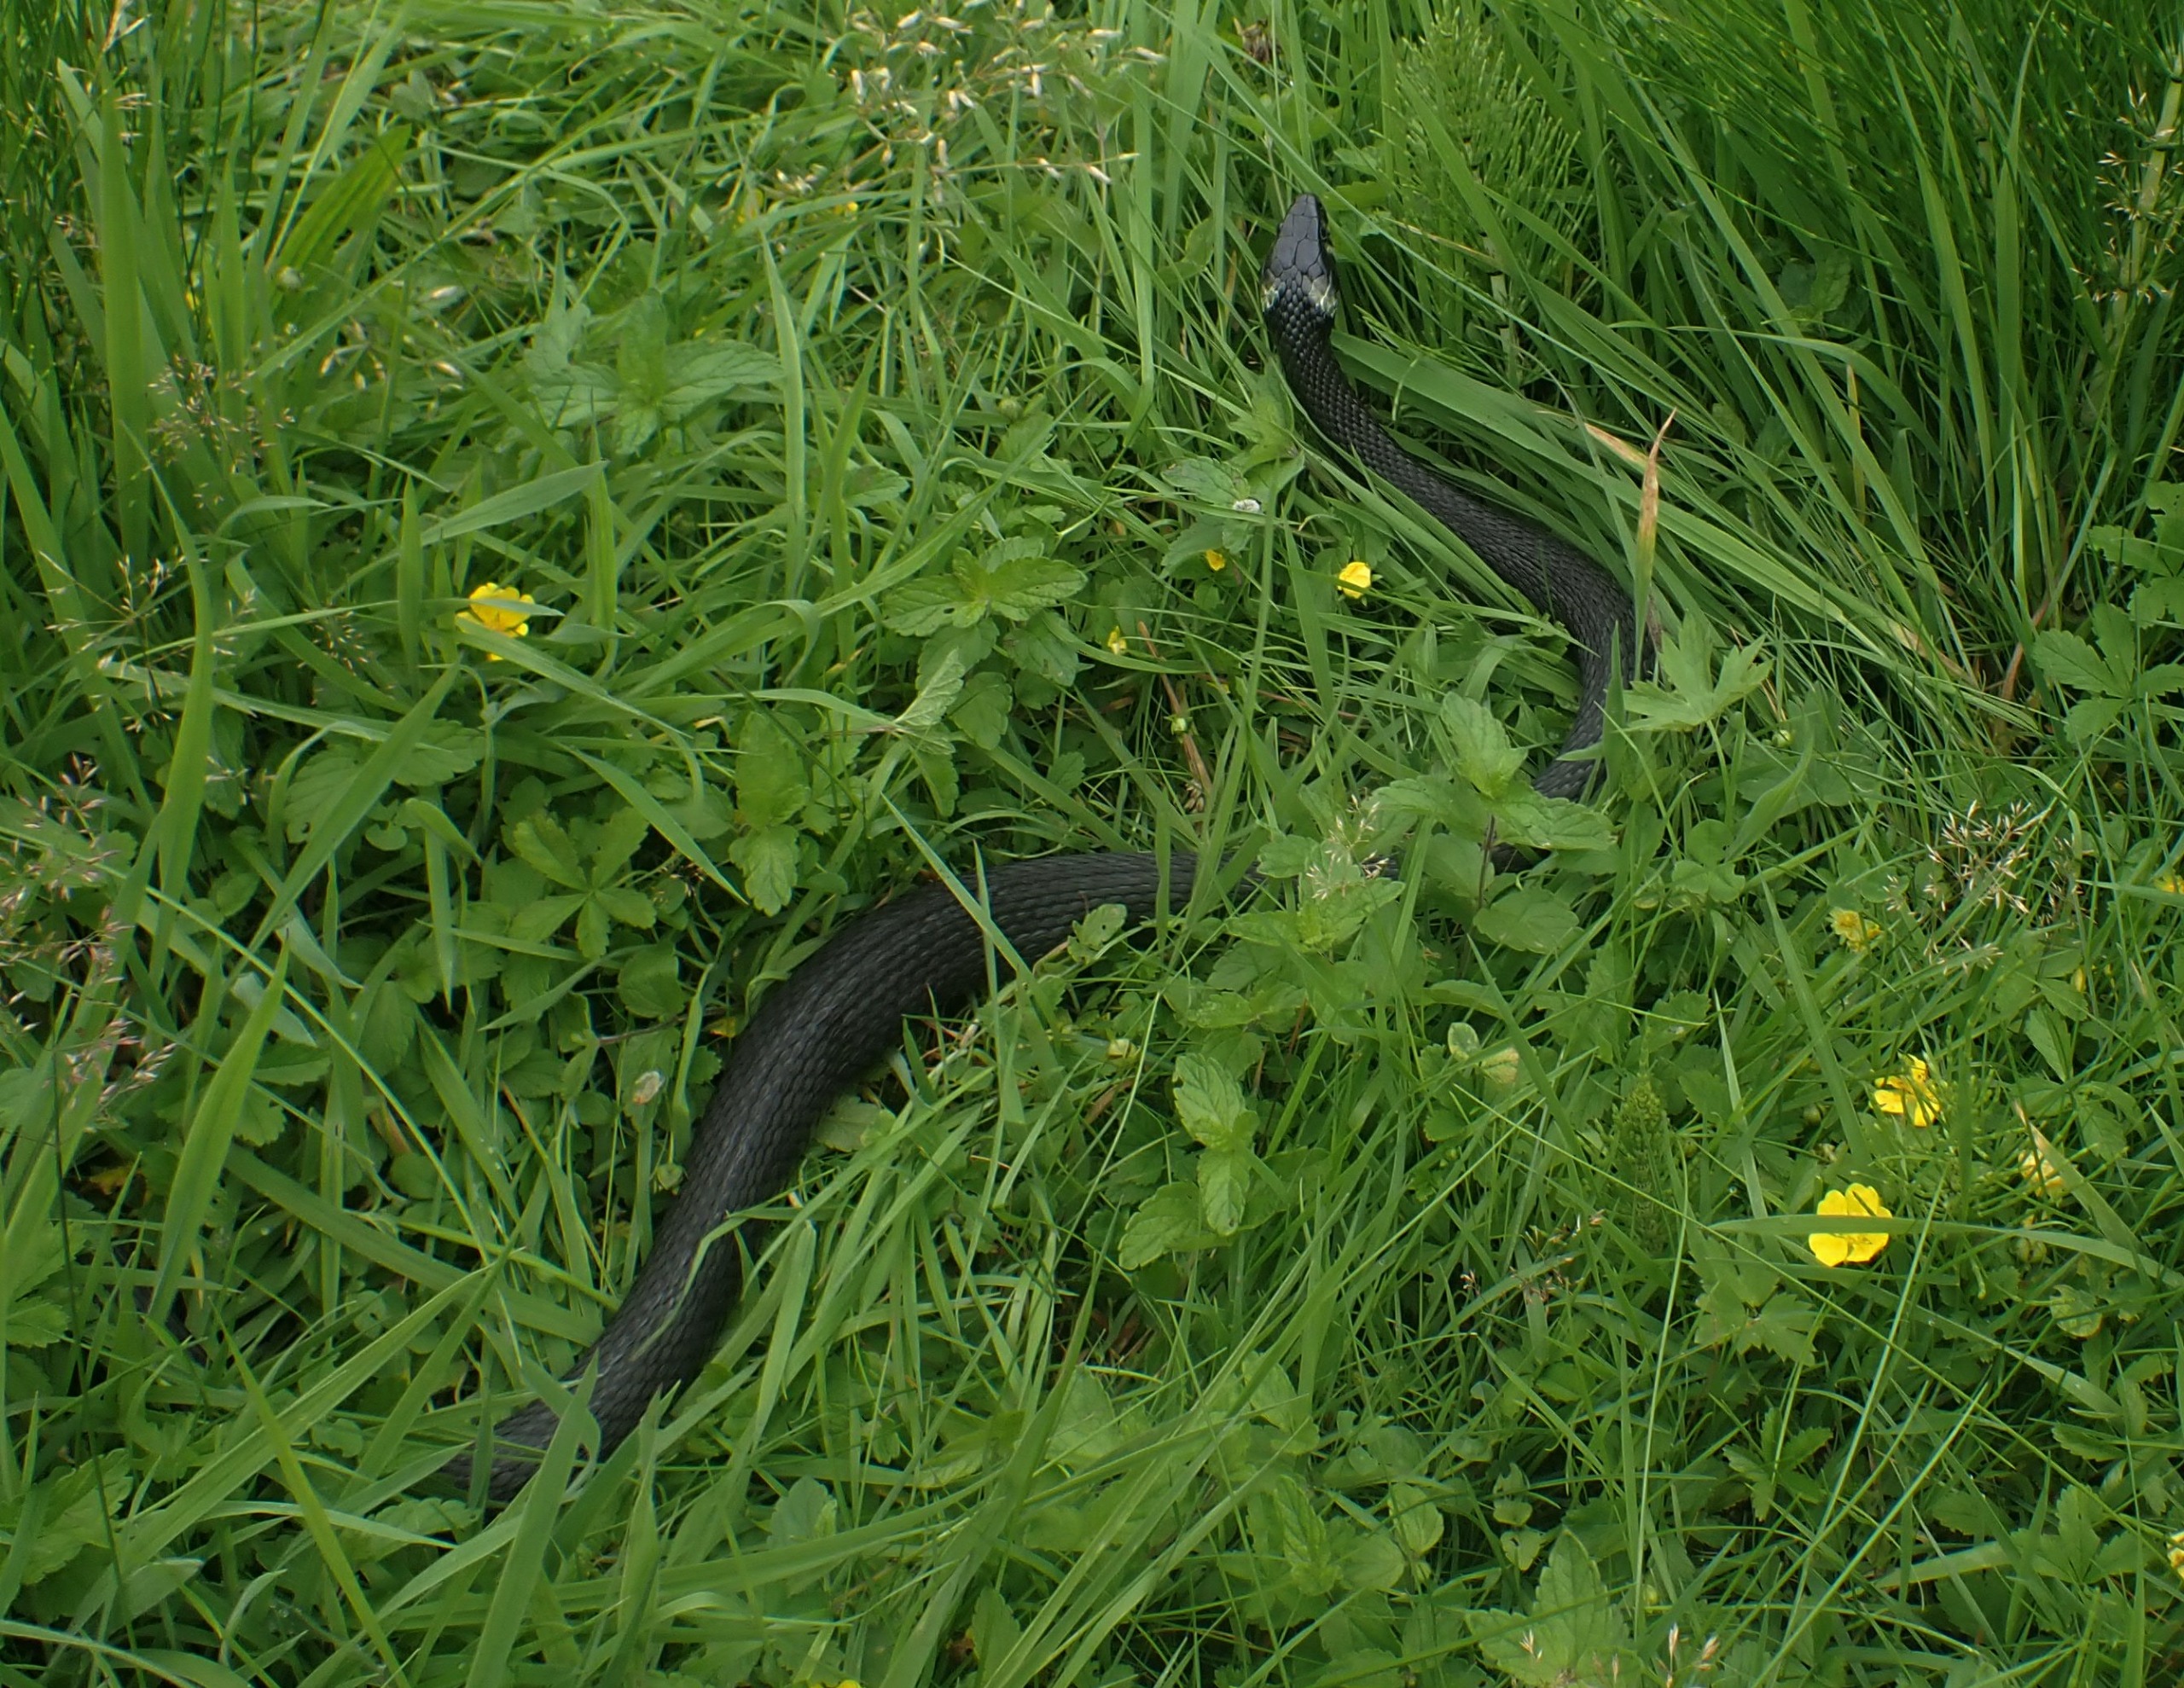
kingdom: Animalia
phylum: Chordata
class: Squamata
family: Colubridae
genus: Natrix
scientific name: Natrix natrix
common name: Snog
